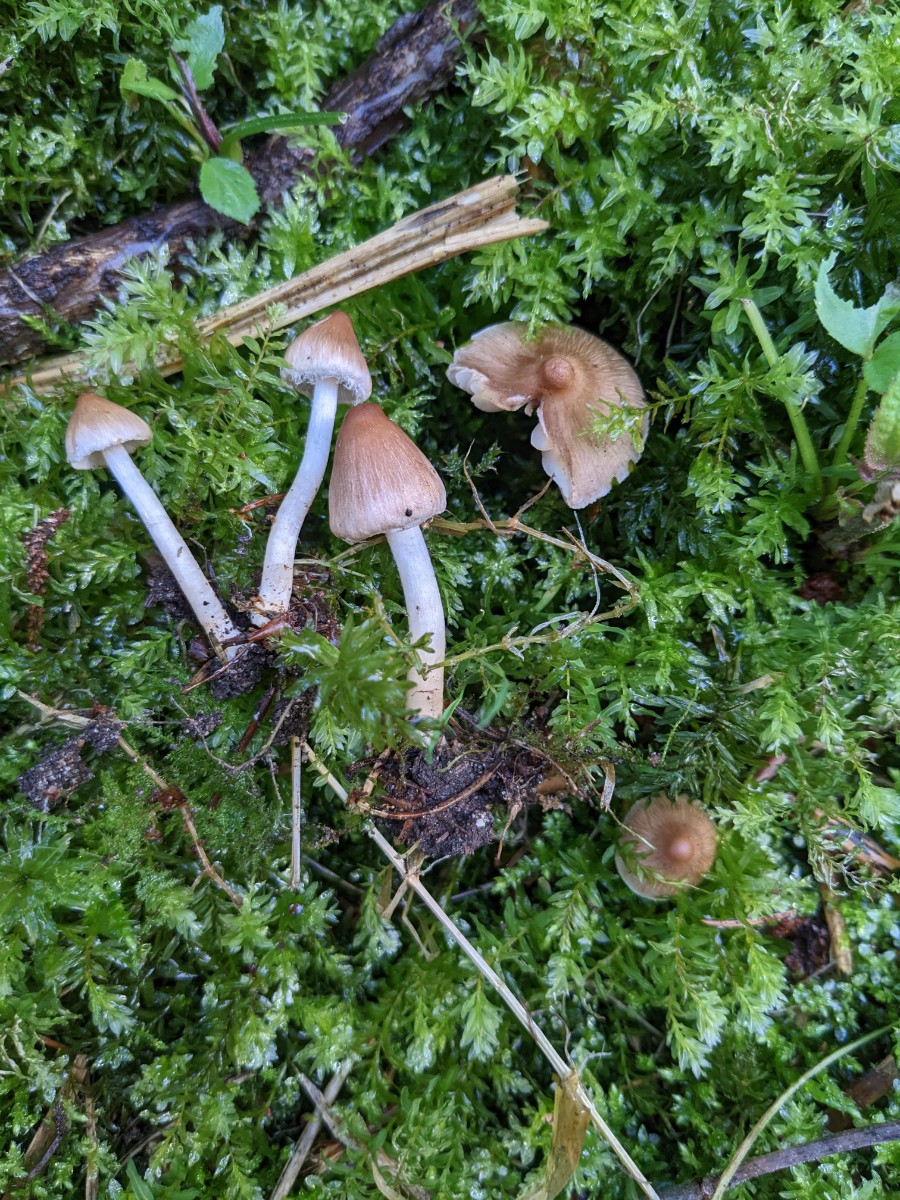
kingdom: Fungi
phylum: Basidiomycota
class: Agaricomycetes
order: Agaricales
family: Inocybaceae
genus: Inocybe
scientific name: Inocybe fuscidula
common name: brunfibret trævlhat
